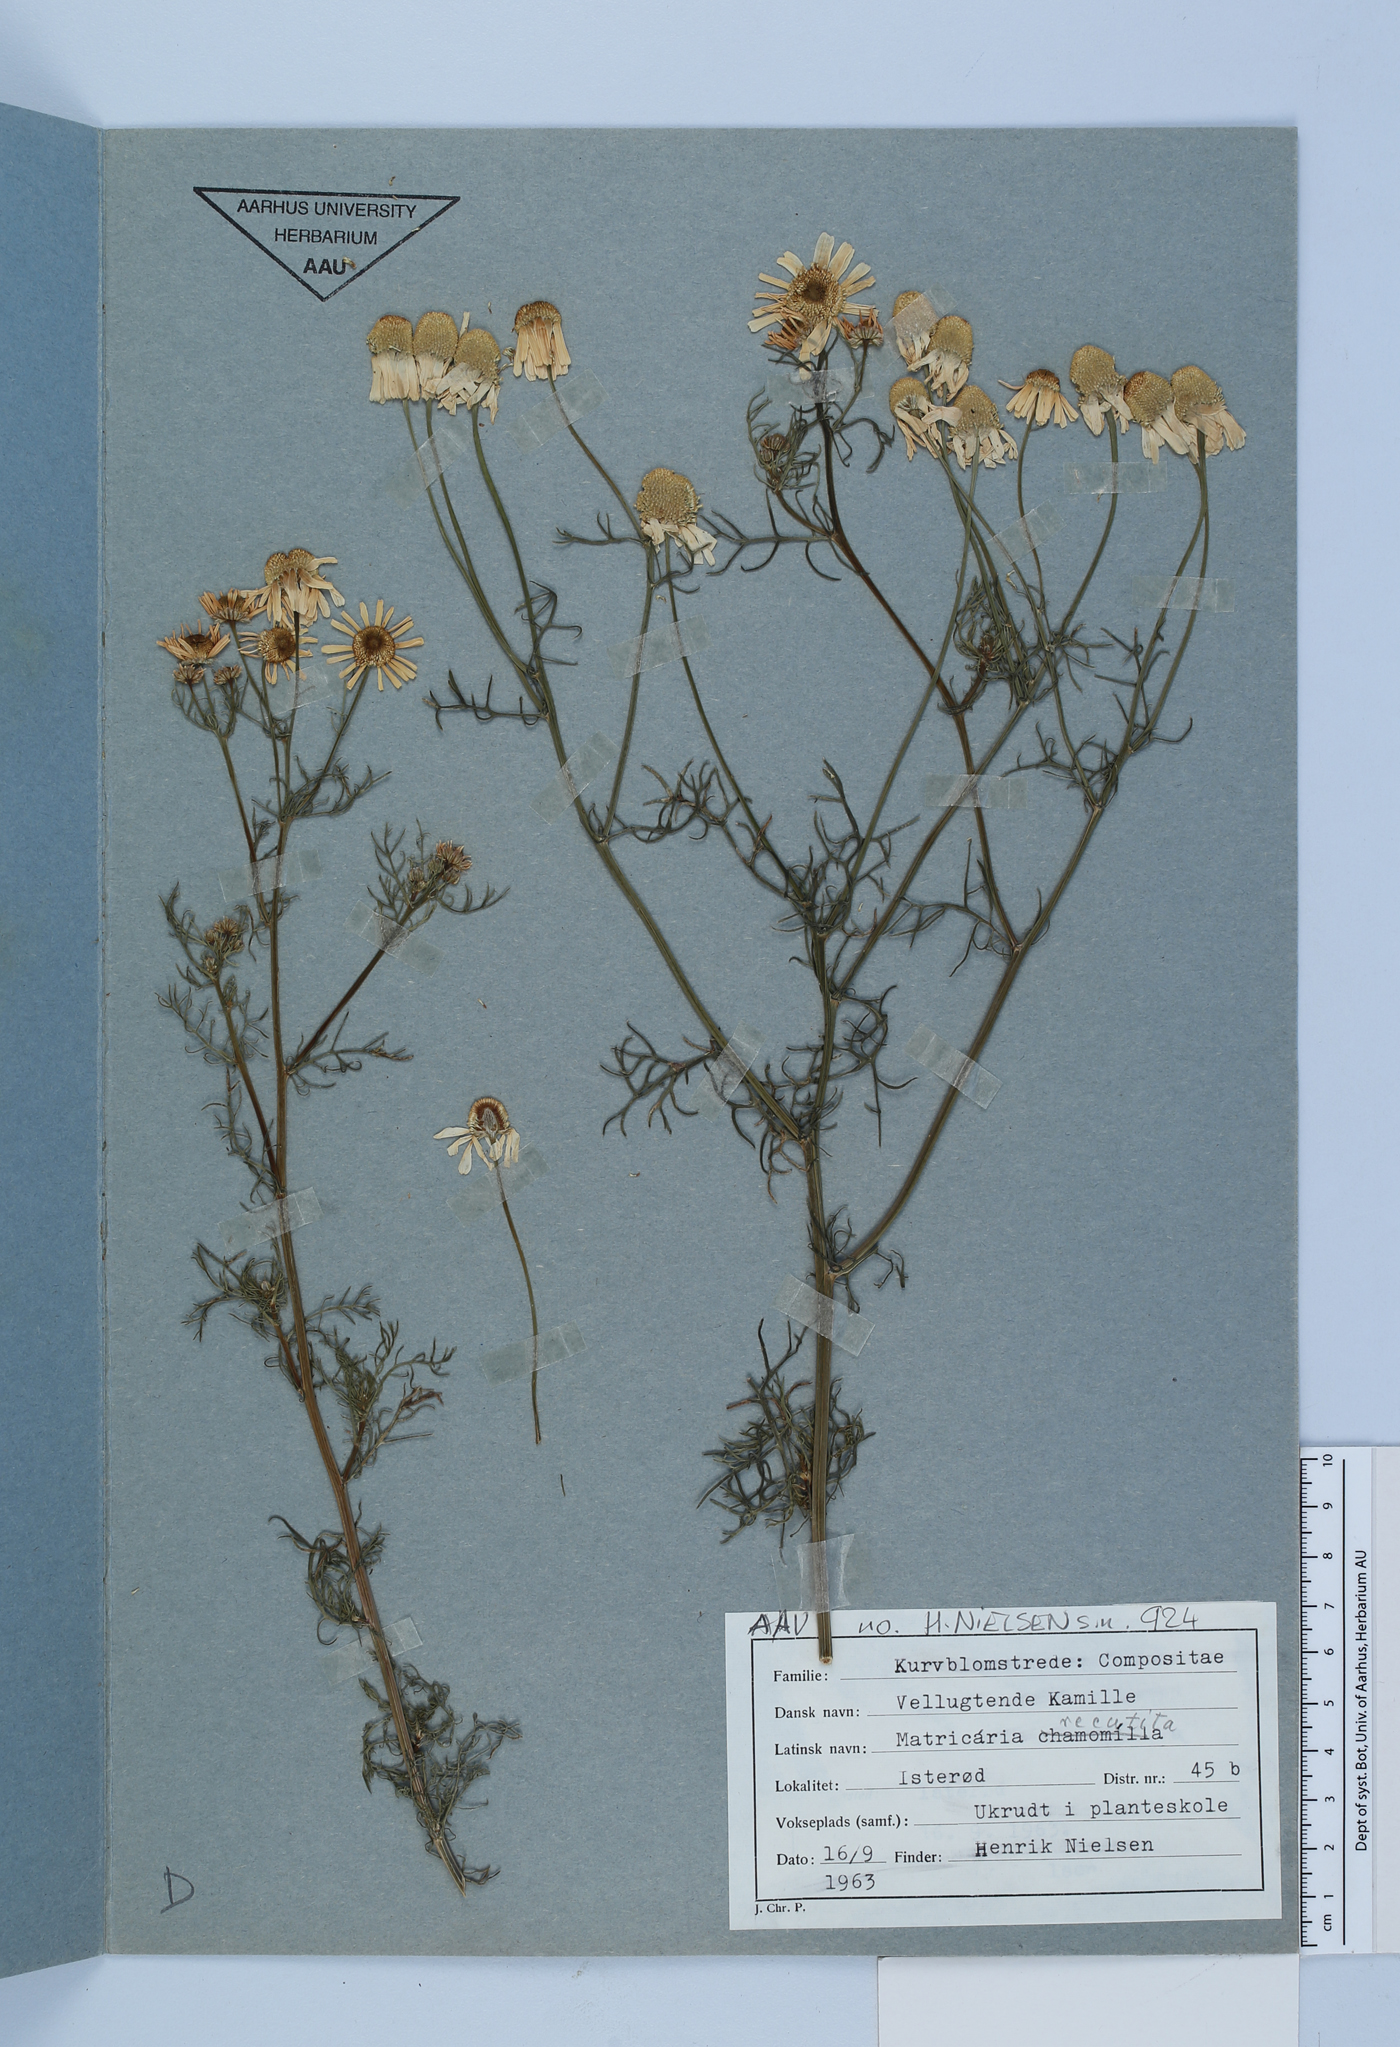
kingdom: Plantae
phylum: Tracheophyta
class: Magnoliopsida
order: Asterales
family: Asteraceae
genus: Matricaria
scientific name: Matricaria chamomilla
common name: Scented mayweed
